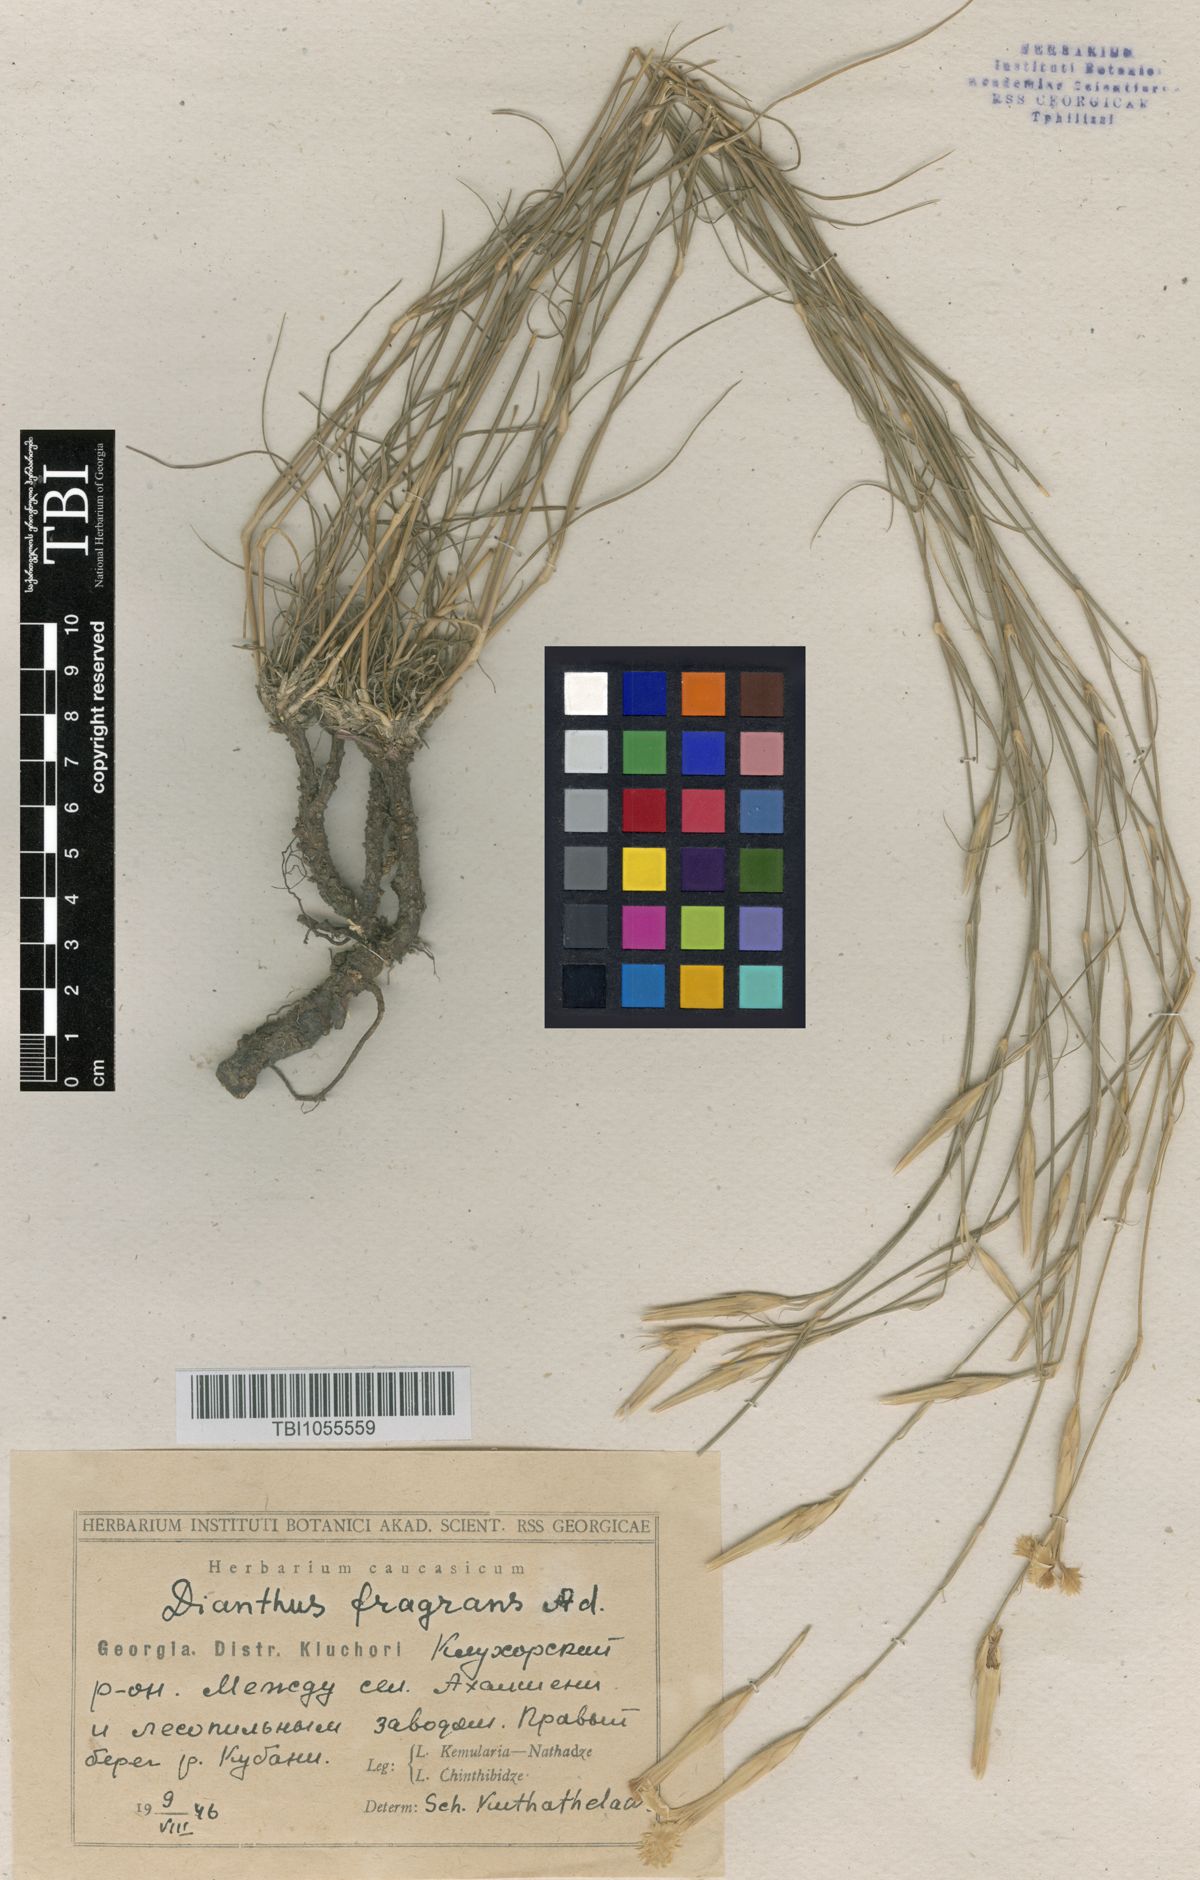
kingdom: Plantae
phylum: Tracheophyta
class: Magnoliopsida
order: Caryophyllales
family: Caryophyllaceae
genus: Dianthus
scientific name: Dianthus
